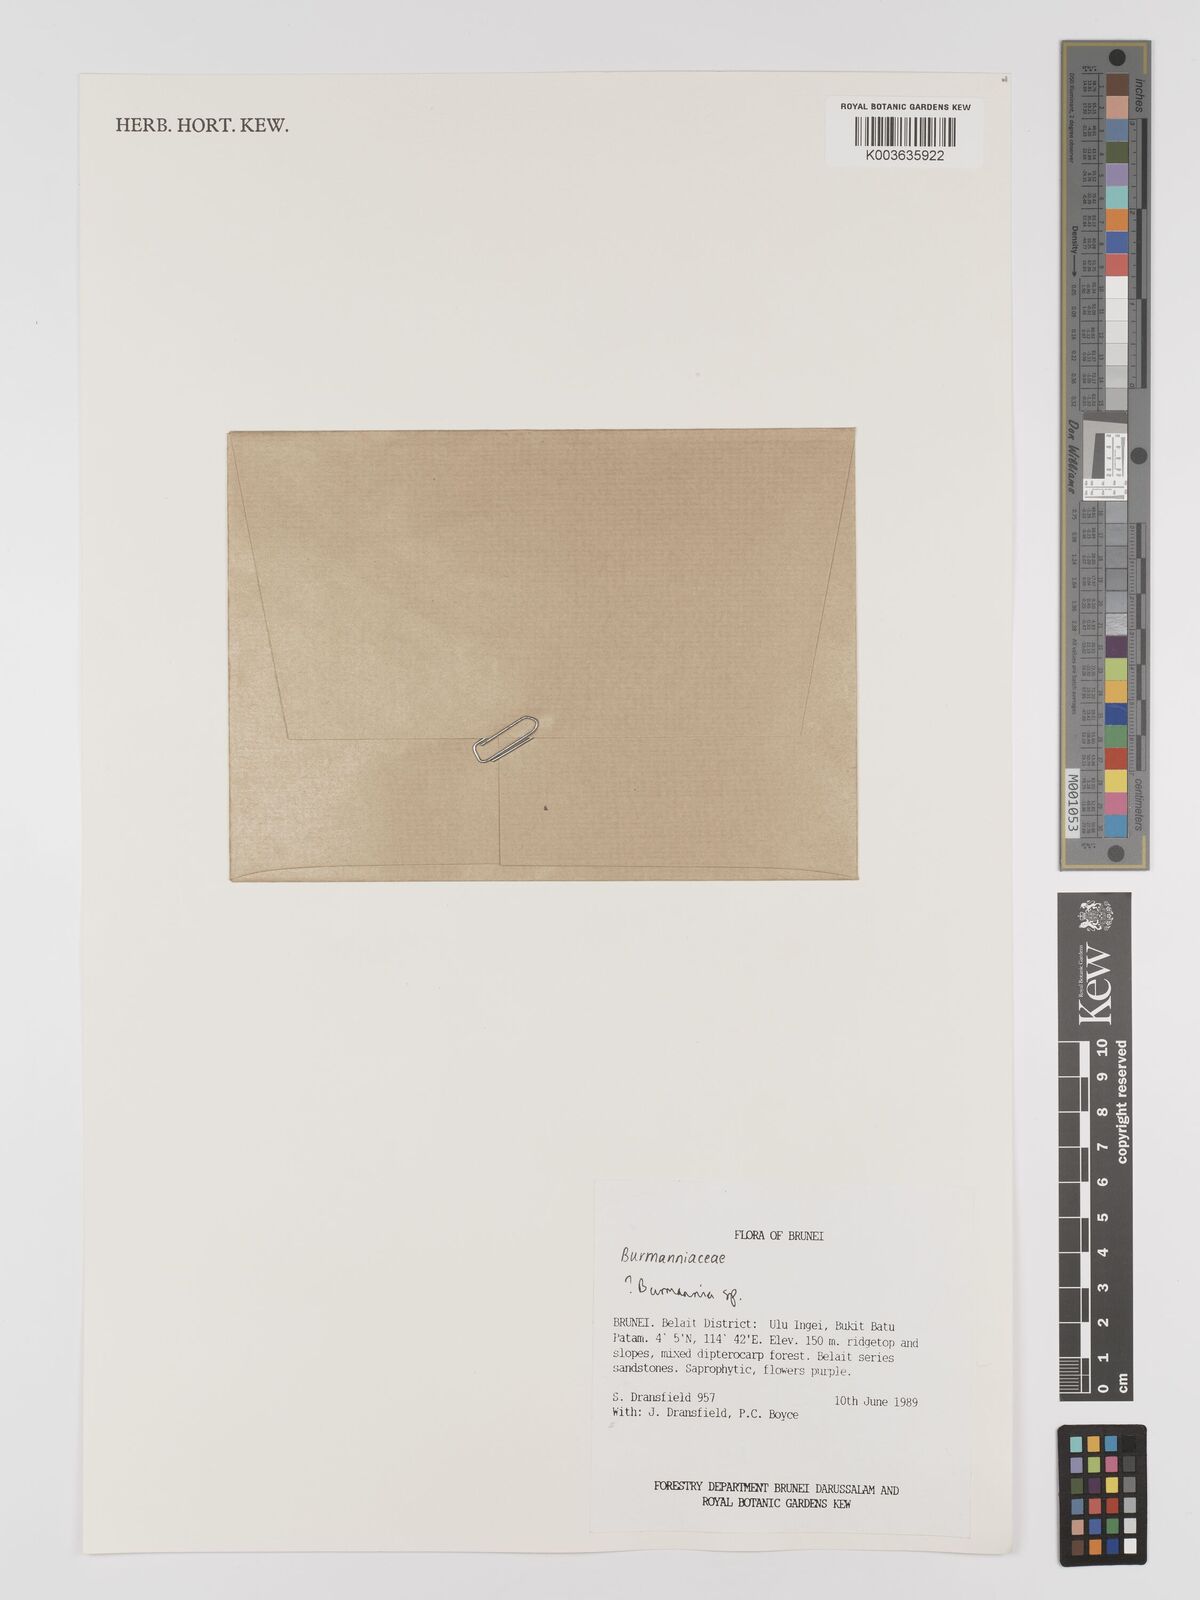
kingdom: Plantae
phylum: Tracheophyta
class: Liliopsida
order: Dioscoreales
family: Burmanniaceae
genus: Burmannia
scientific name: Burmannia
